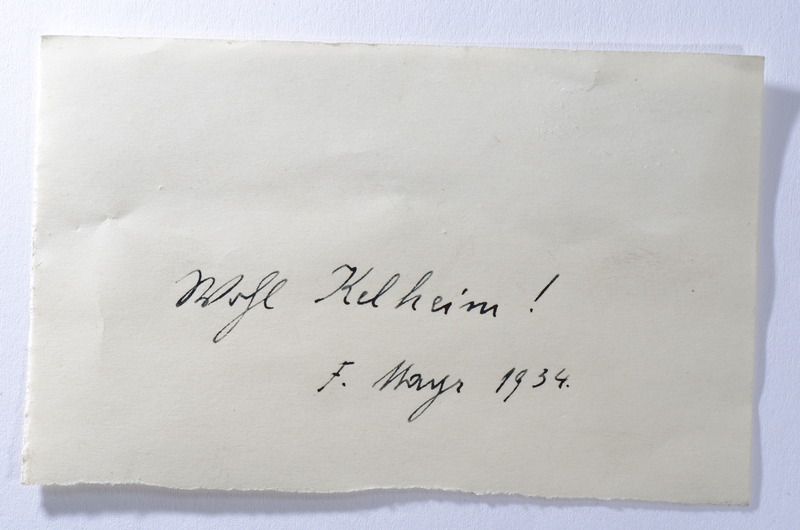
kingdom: Animalia
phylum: Chordata
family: Pleuropholidae
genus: Pleuropholis
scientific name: Pleuropholis laevissima
